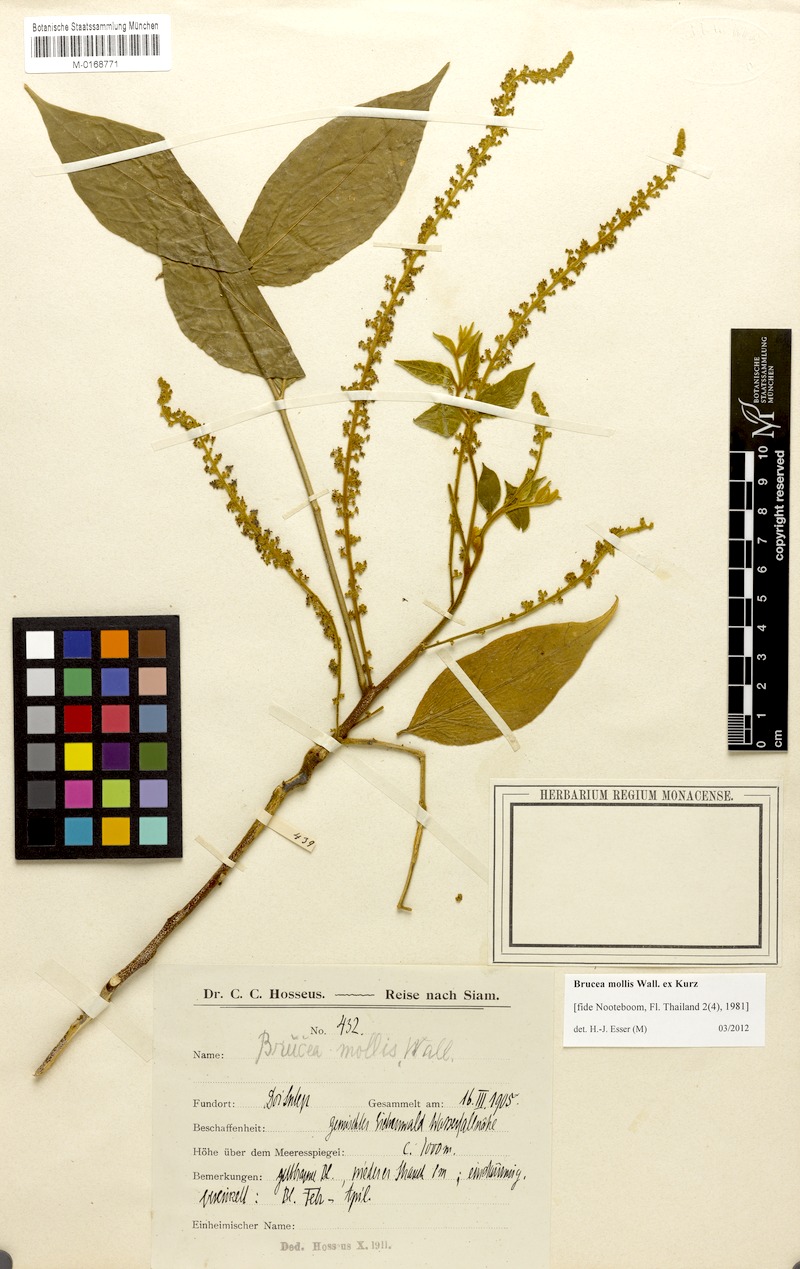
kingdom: Plantae
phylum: Tracheophyta
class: Magnoliopsida
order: Sapindales
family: Simaroubaceae
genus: Brucea
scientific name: Brucea mollis
